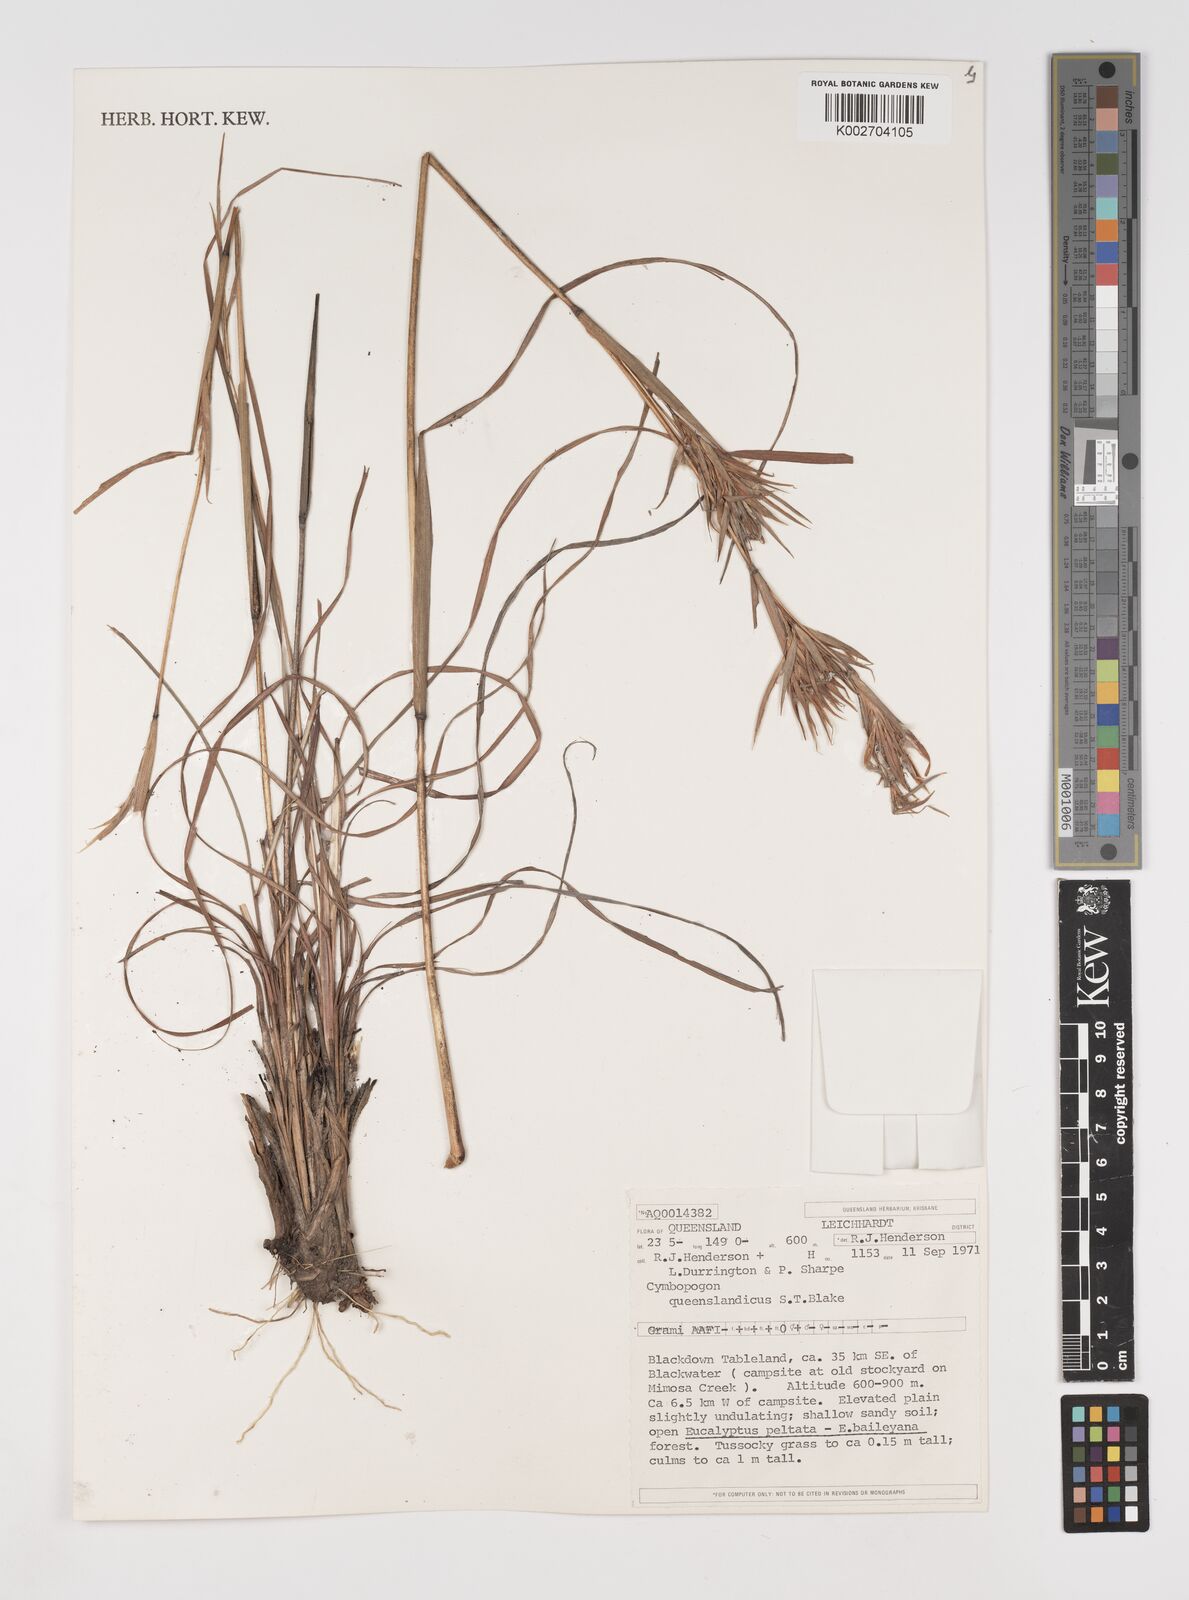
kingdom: Plantae
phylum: Tracheophyta
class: Liliopsida
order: Poales
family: Poaceae
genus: Cymbopogon
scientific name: Cymbopogon queenslandicus
